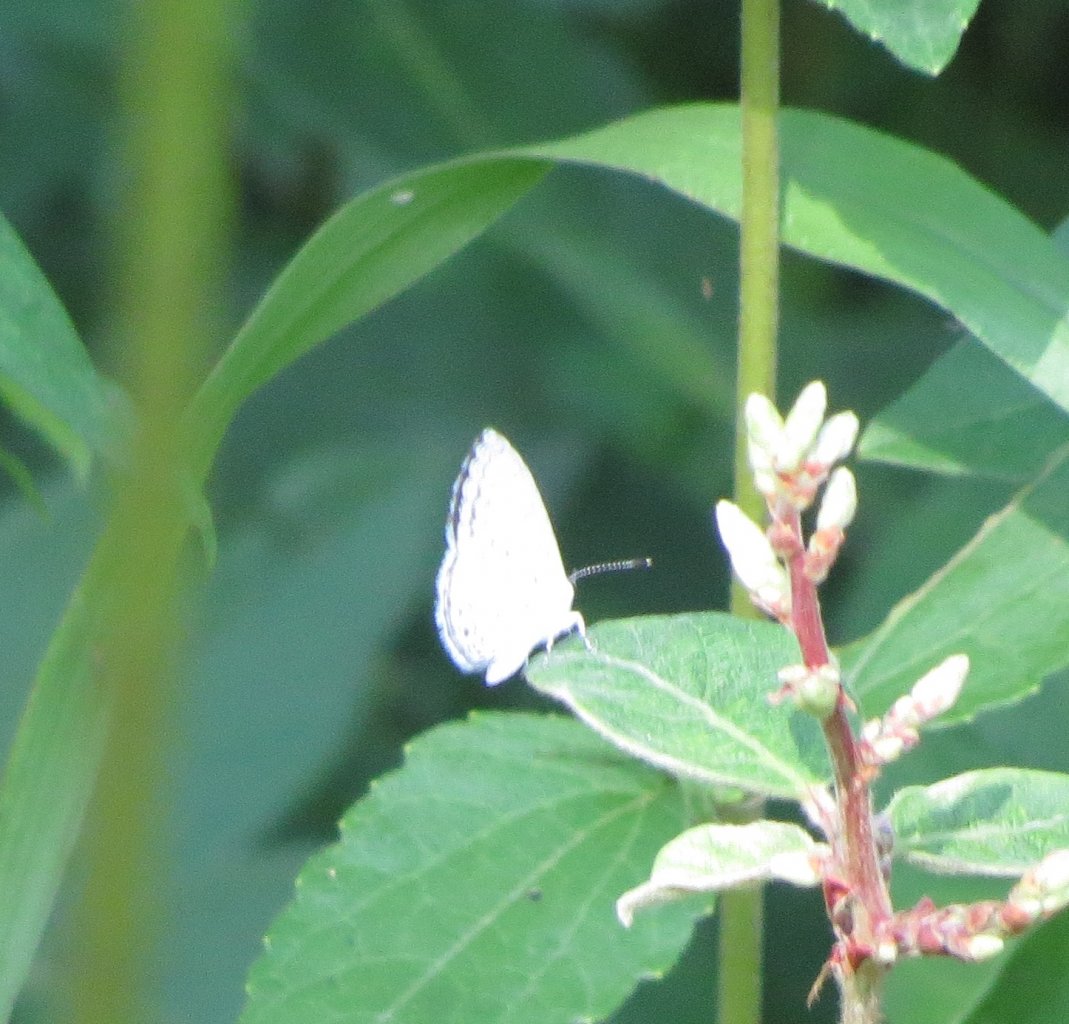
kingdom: Animalia
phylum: Arthropoda
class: Insecta
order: Lepidoptera
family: Lycaenidae
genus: Cyaniris
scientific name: Cyaniris neglecta
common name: Summer Azure
